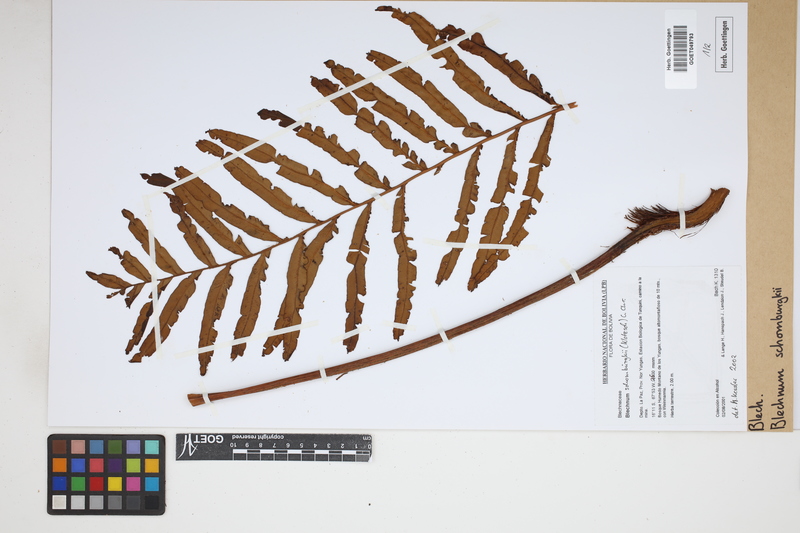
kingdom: Plantae
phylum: Tracheophyta
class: Polypodiopsida
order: Polypodiales
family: Blechnaceae
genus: Lomariocycas
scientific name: Lomariocycas schomburgkii
